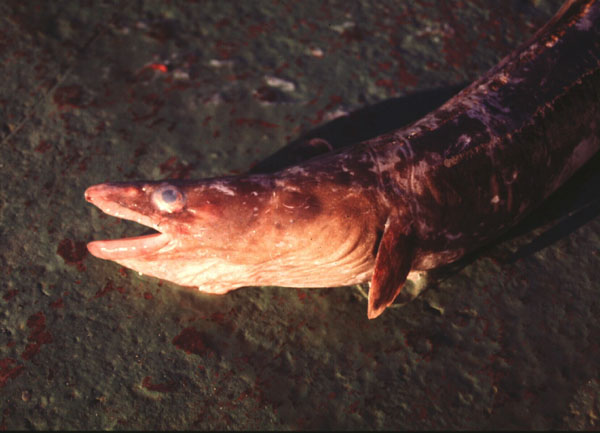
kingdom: Animalia
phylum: Chordata
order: Anguilliformes
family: Congridae
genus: Conger
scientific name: Conger wilsoni
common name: Cape conger
